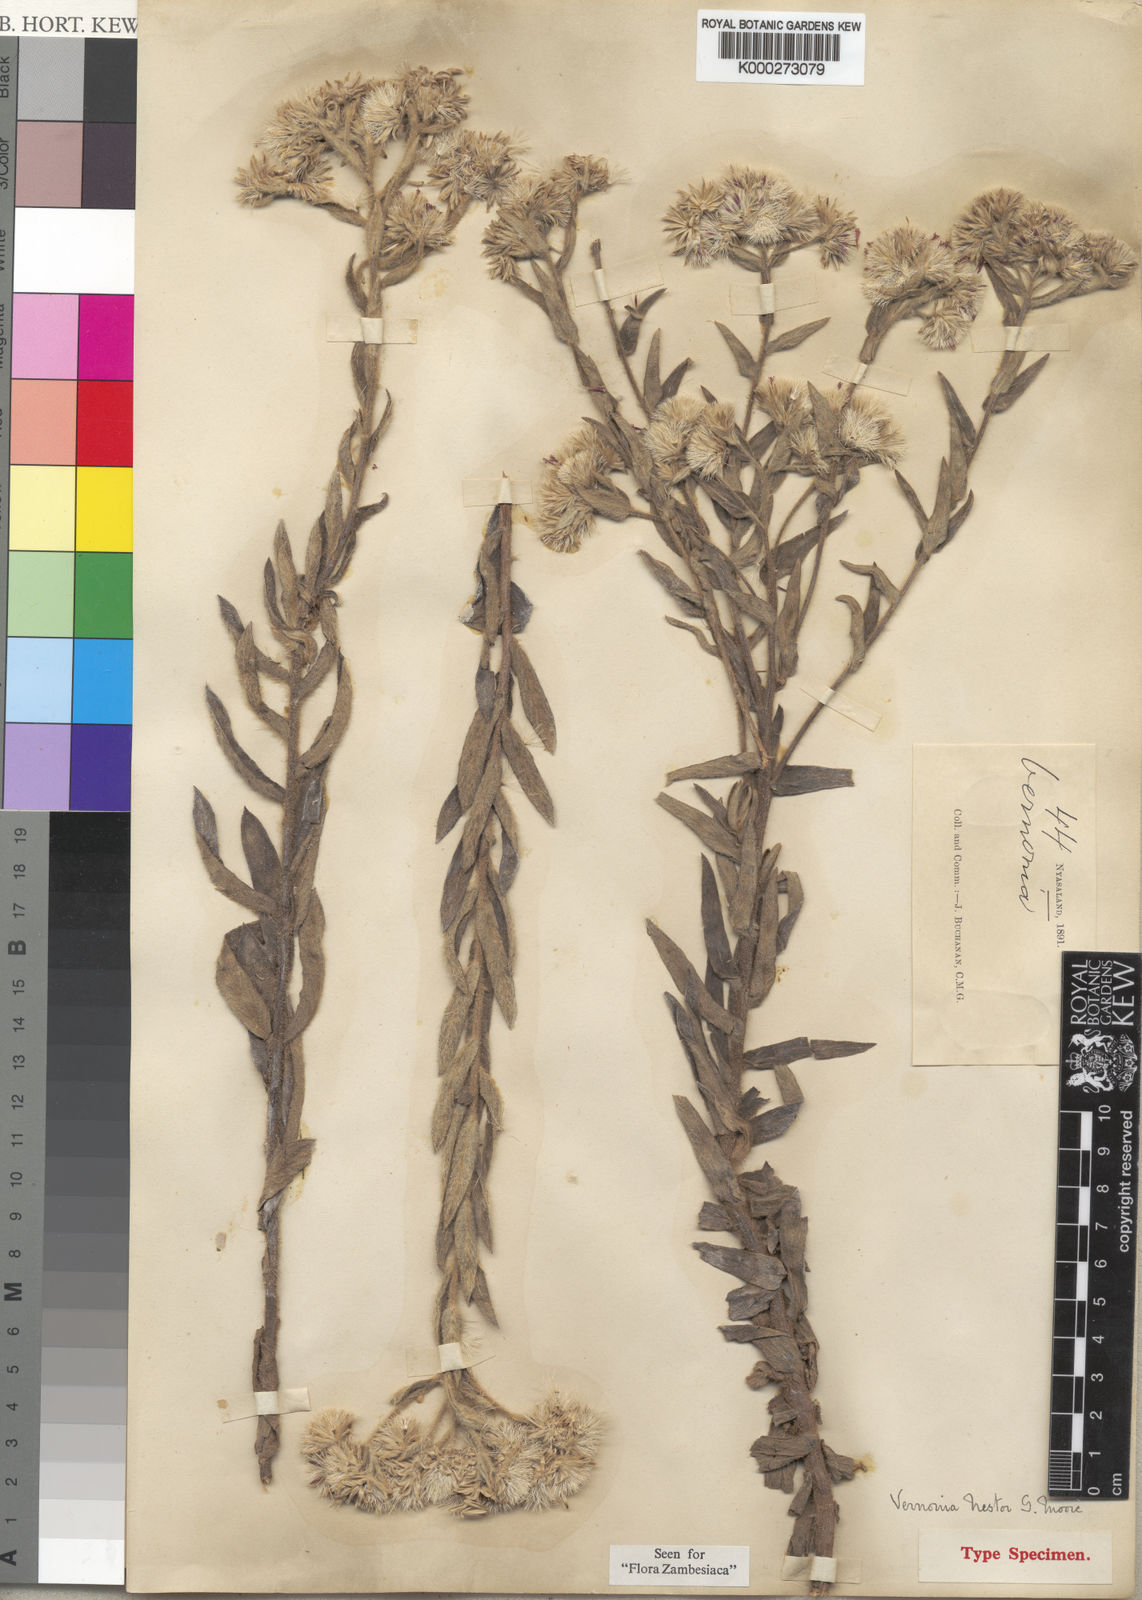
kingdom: Plantae
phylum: Tracheophyta
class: Magnoliopsida
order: Asterales
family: Asteraceae
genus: Vernoniastrum
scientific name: Vernoniastrum nestor
